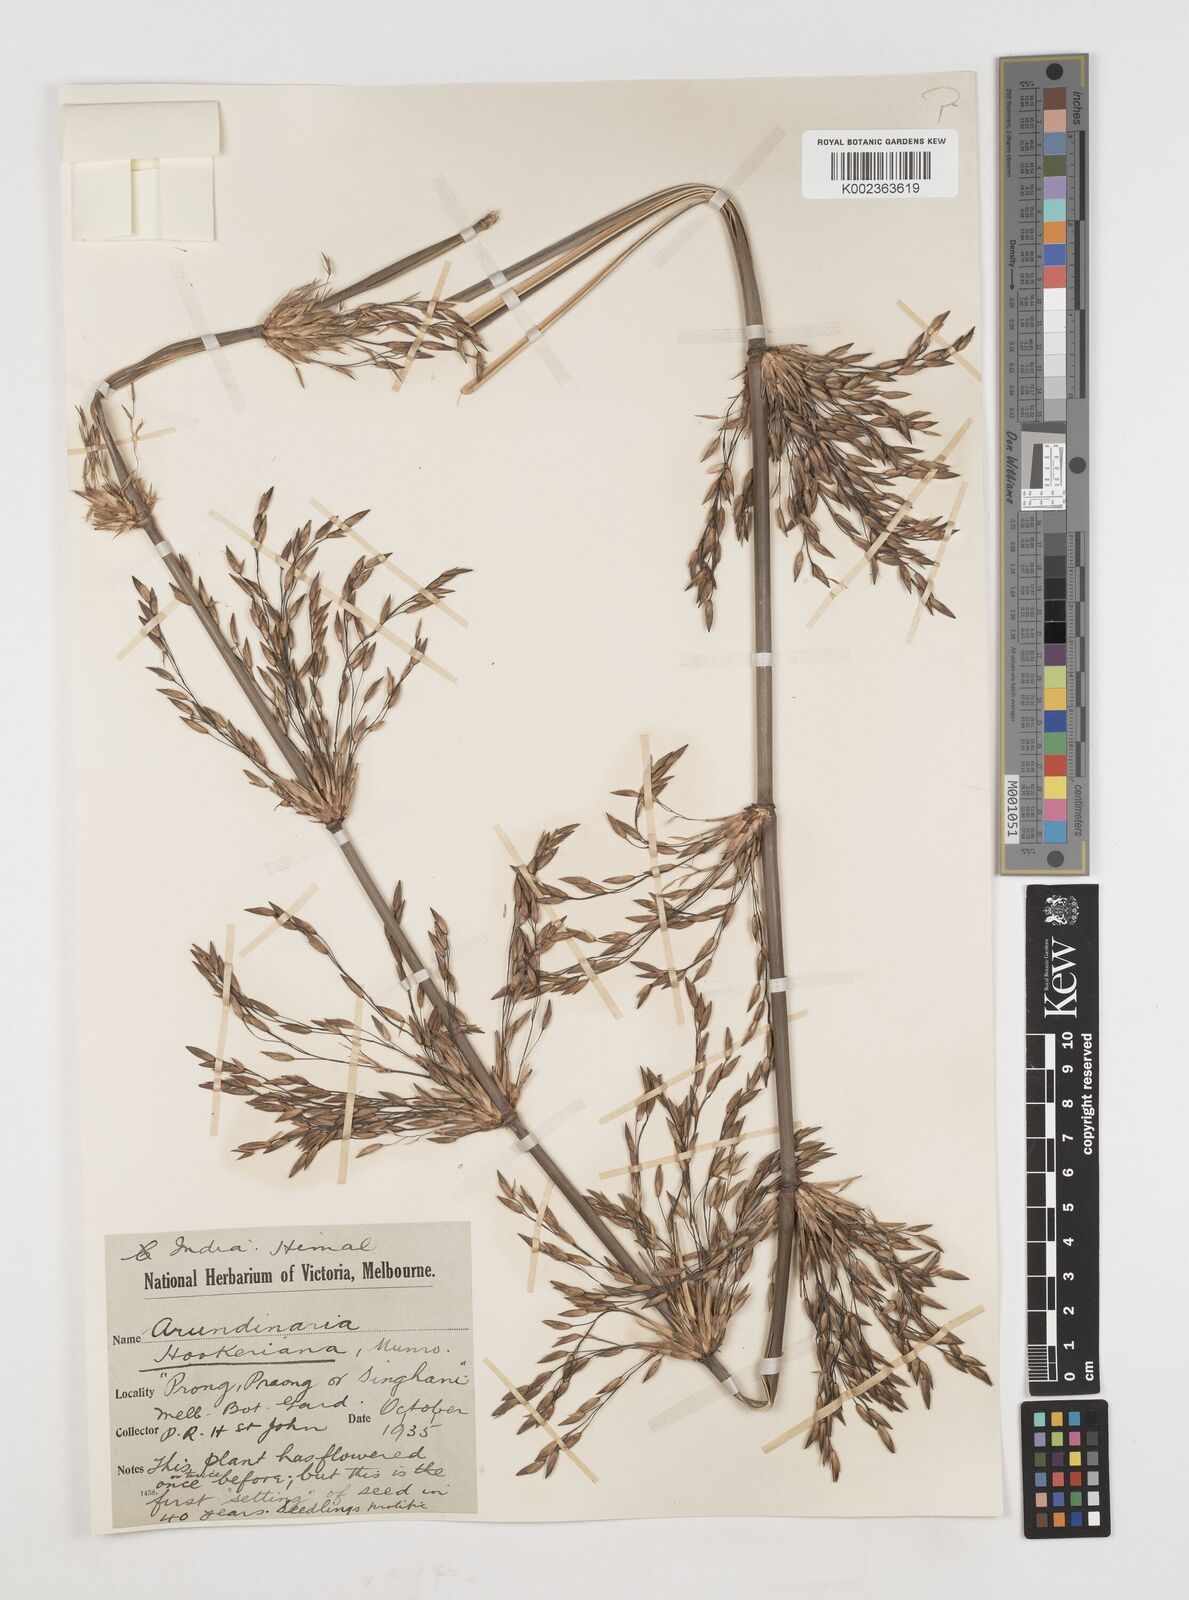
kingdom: Plantae
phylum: Tracheophyta
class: Liliopsida
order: Poales
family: Poaceae
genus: Himalayacalamus
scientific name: Himalayacalamus hookerianus
